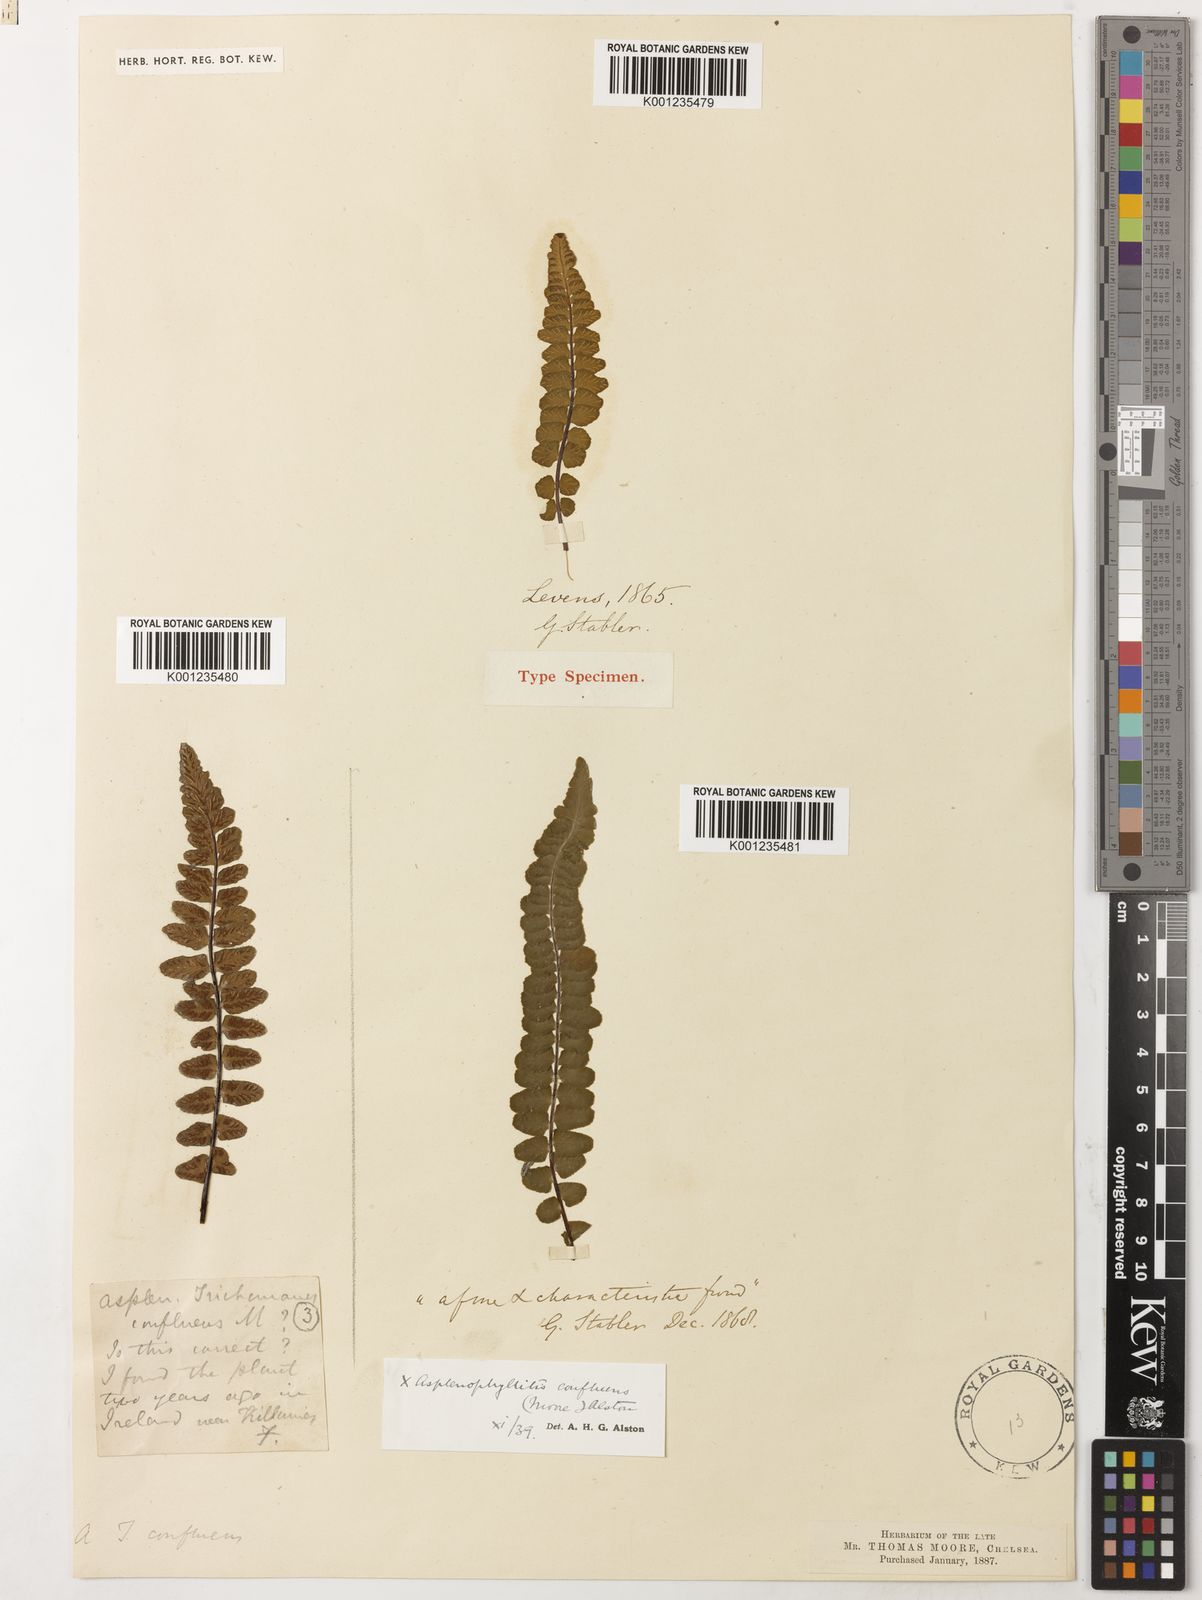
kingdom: Plantae
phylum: Tracheophyta
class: Polypodiopsida
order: Polypodiales
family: Aspleniaceae
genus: Asplenium
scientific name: Asplenium lawalreei
